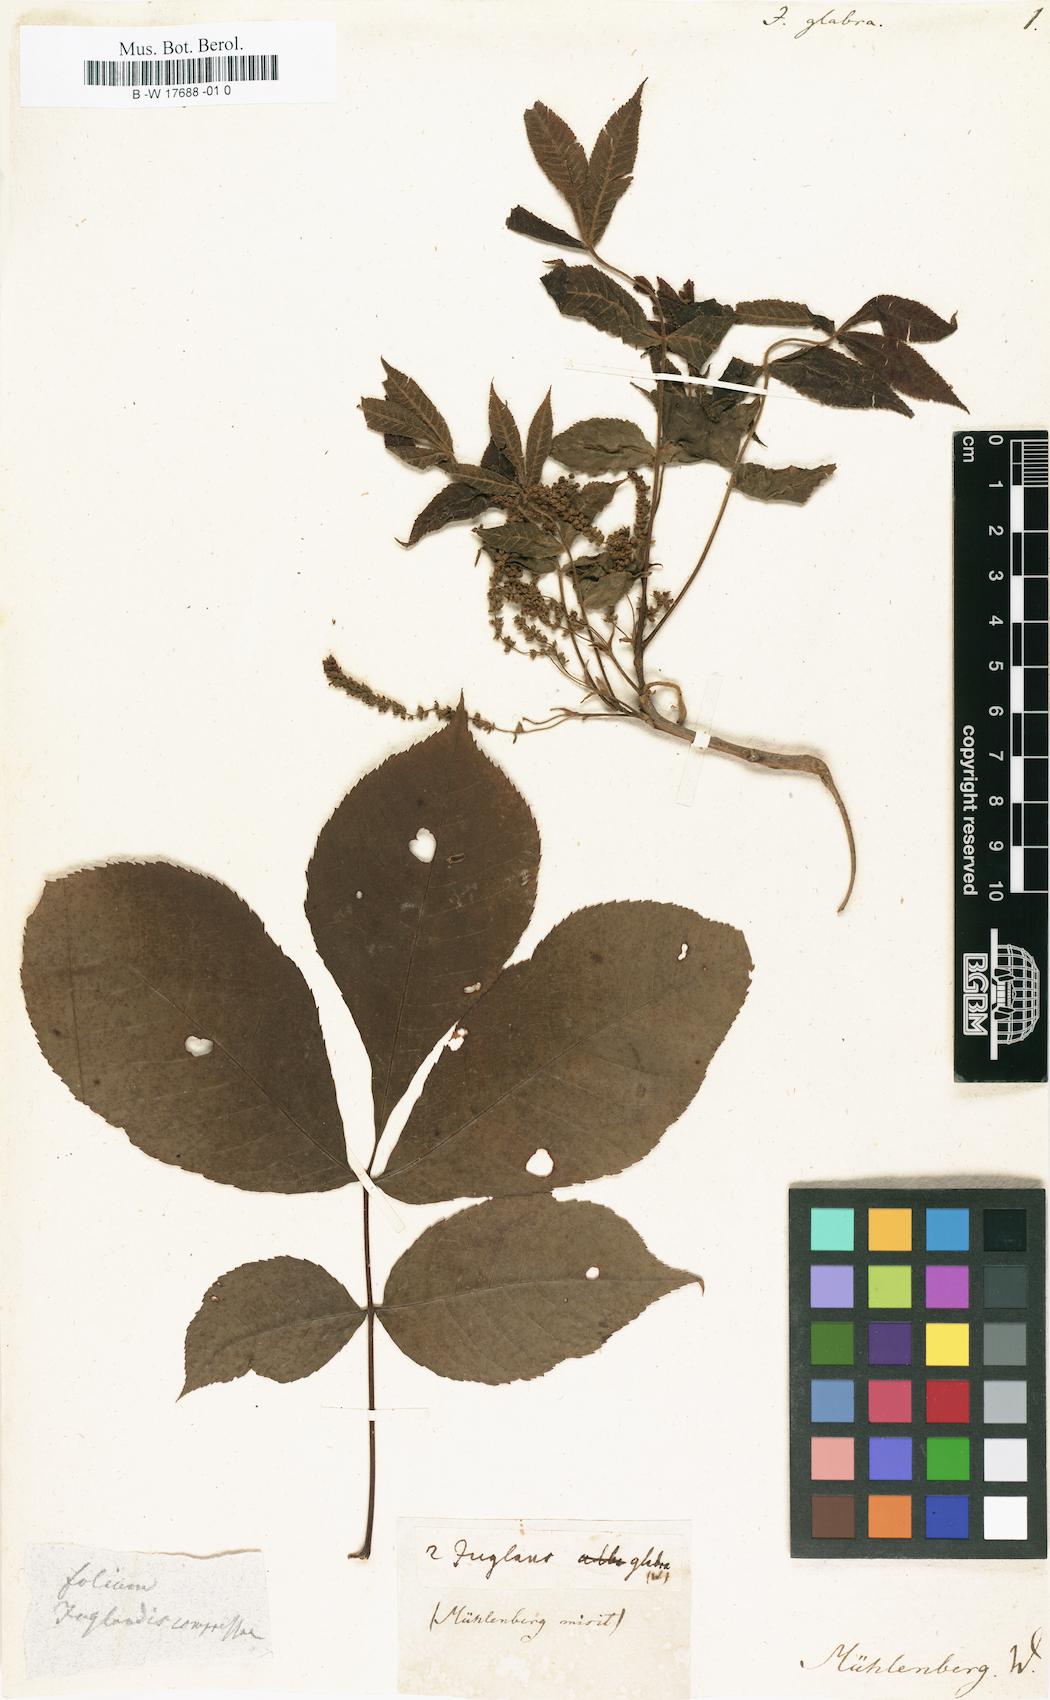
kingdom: Plantae
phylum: Tracheophyta
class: Magnoliopsida
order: Fagales
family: Juglandaceae
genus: Carya
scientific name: Carya glabra
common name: Pignut hickory
